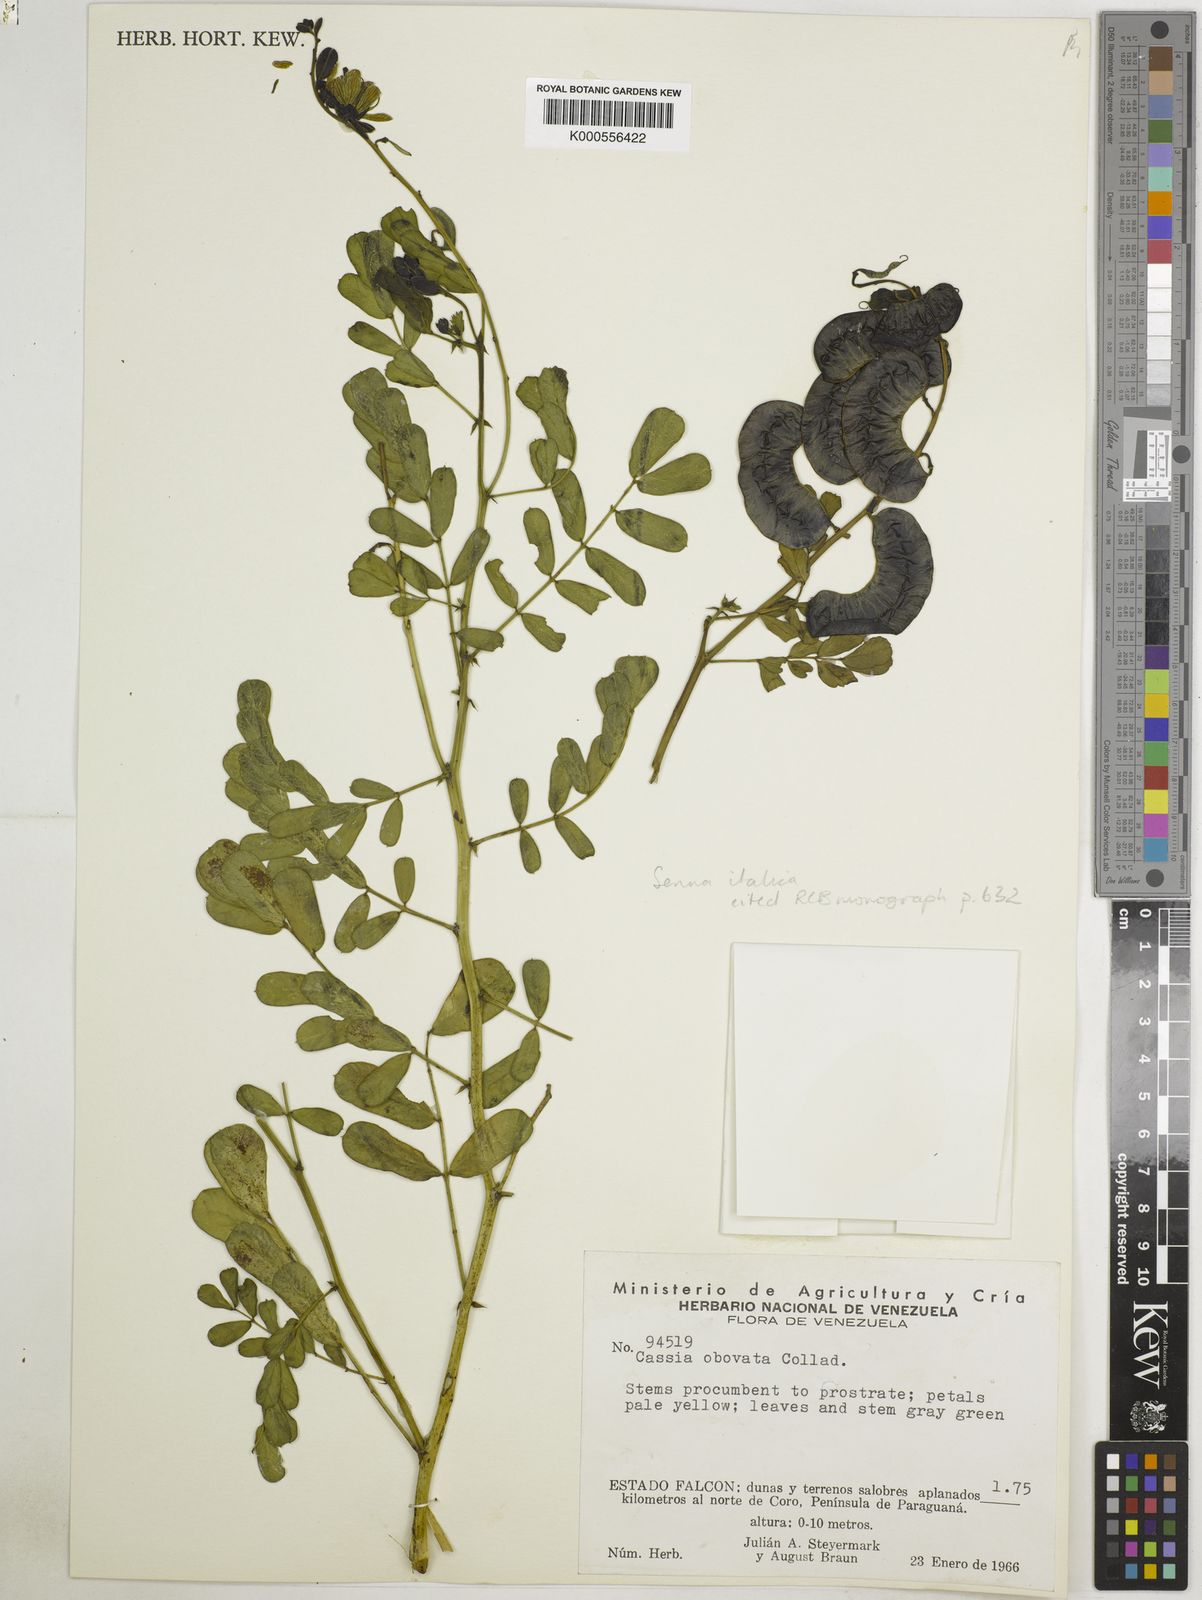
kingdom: Plantae
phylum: Tracheophyta
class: Magnoliopsida
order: Fabales
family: Fabaceae
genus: Senna
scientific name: Senna
